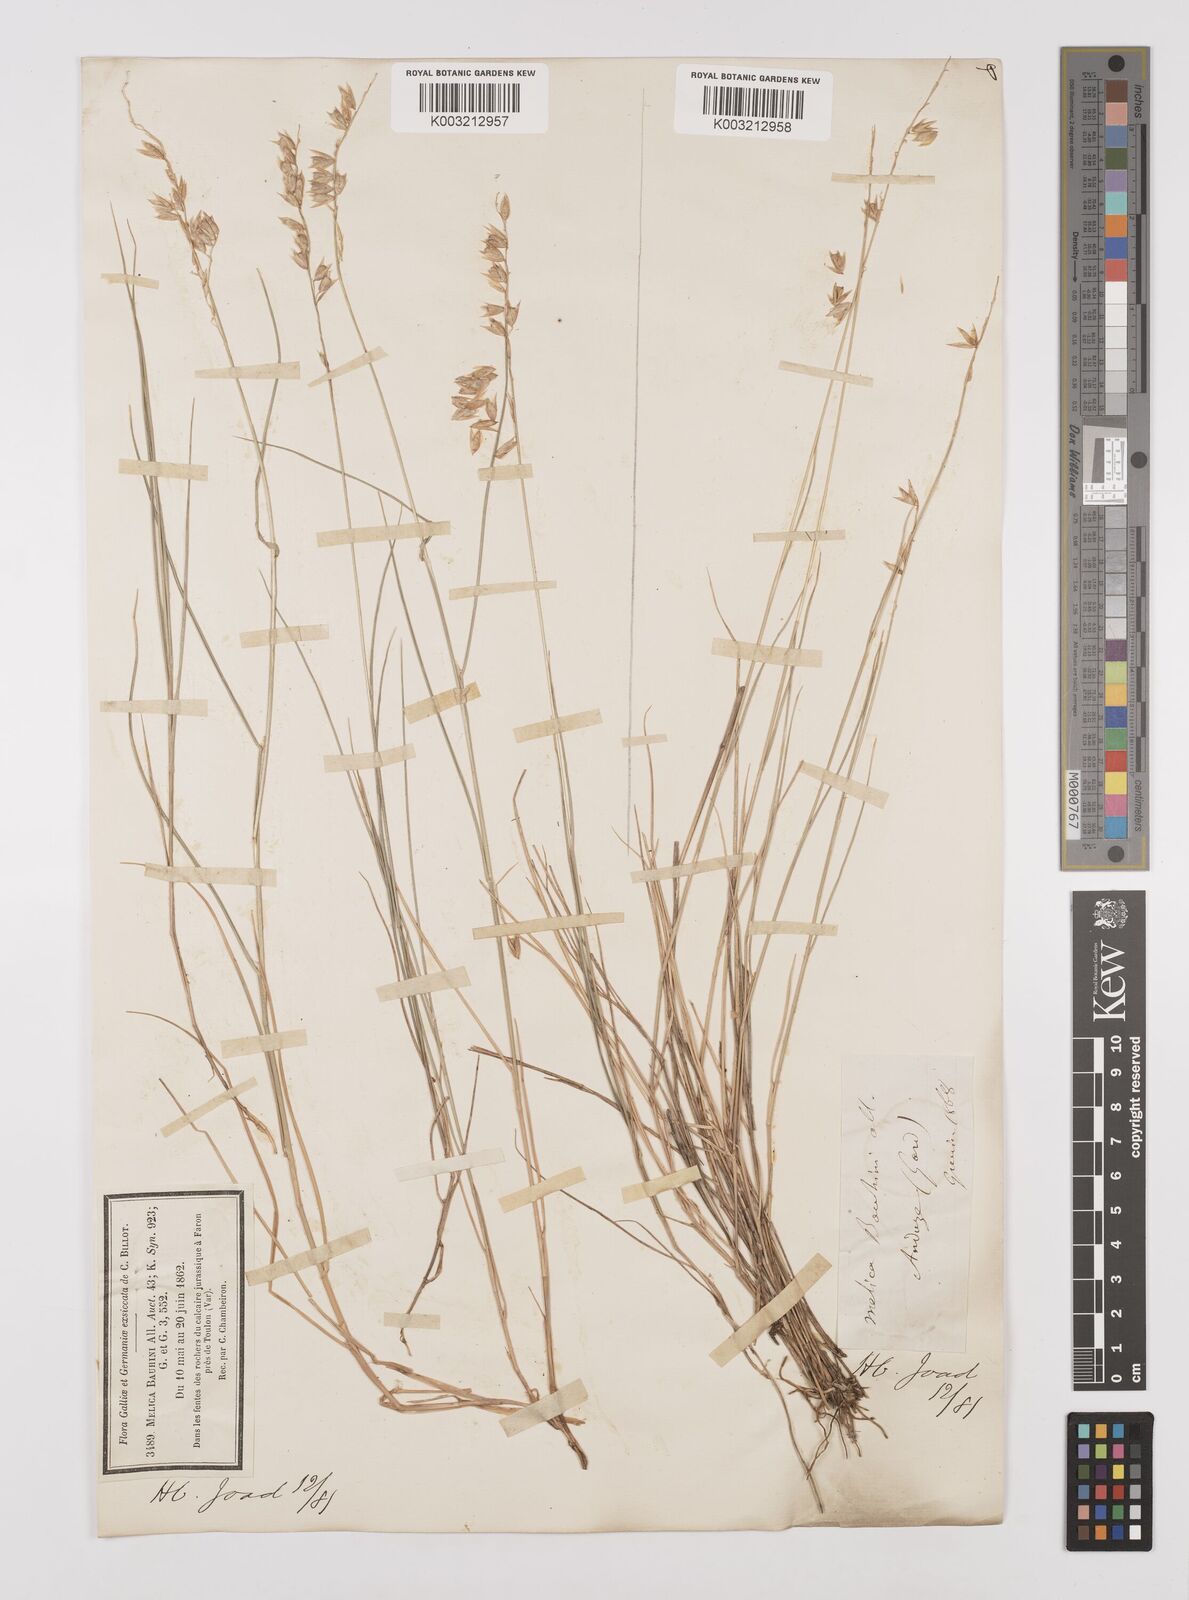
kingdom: Plantae
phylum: Tracheophyta
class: Liliopsida
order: Poales
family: Poaceae
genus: Melica
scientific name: Melica amethystina
